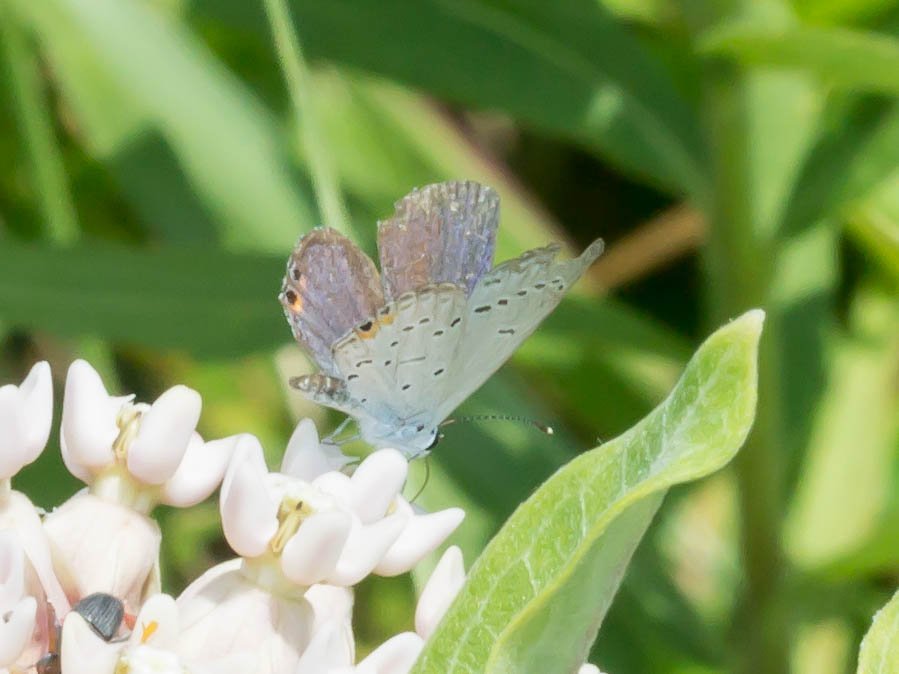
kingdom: Animalia
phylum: Arthropoda
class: Insecta
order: Lepidoptera
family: Lycaenidae
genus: Elkalyce
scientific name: Elkalyce comyntas
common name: Eastern Tailed-Blue
